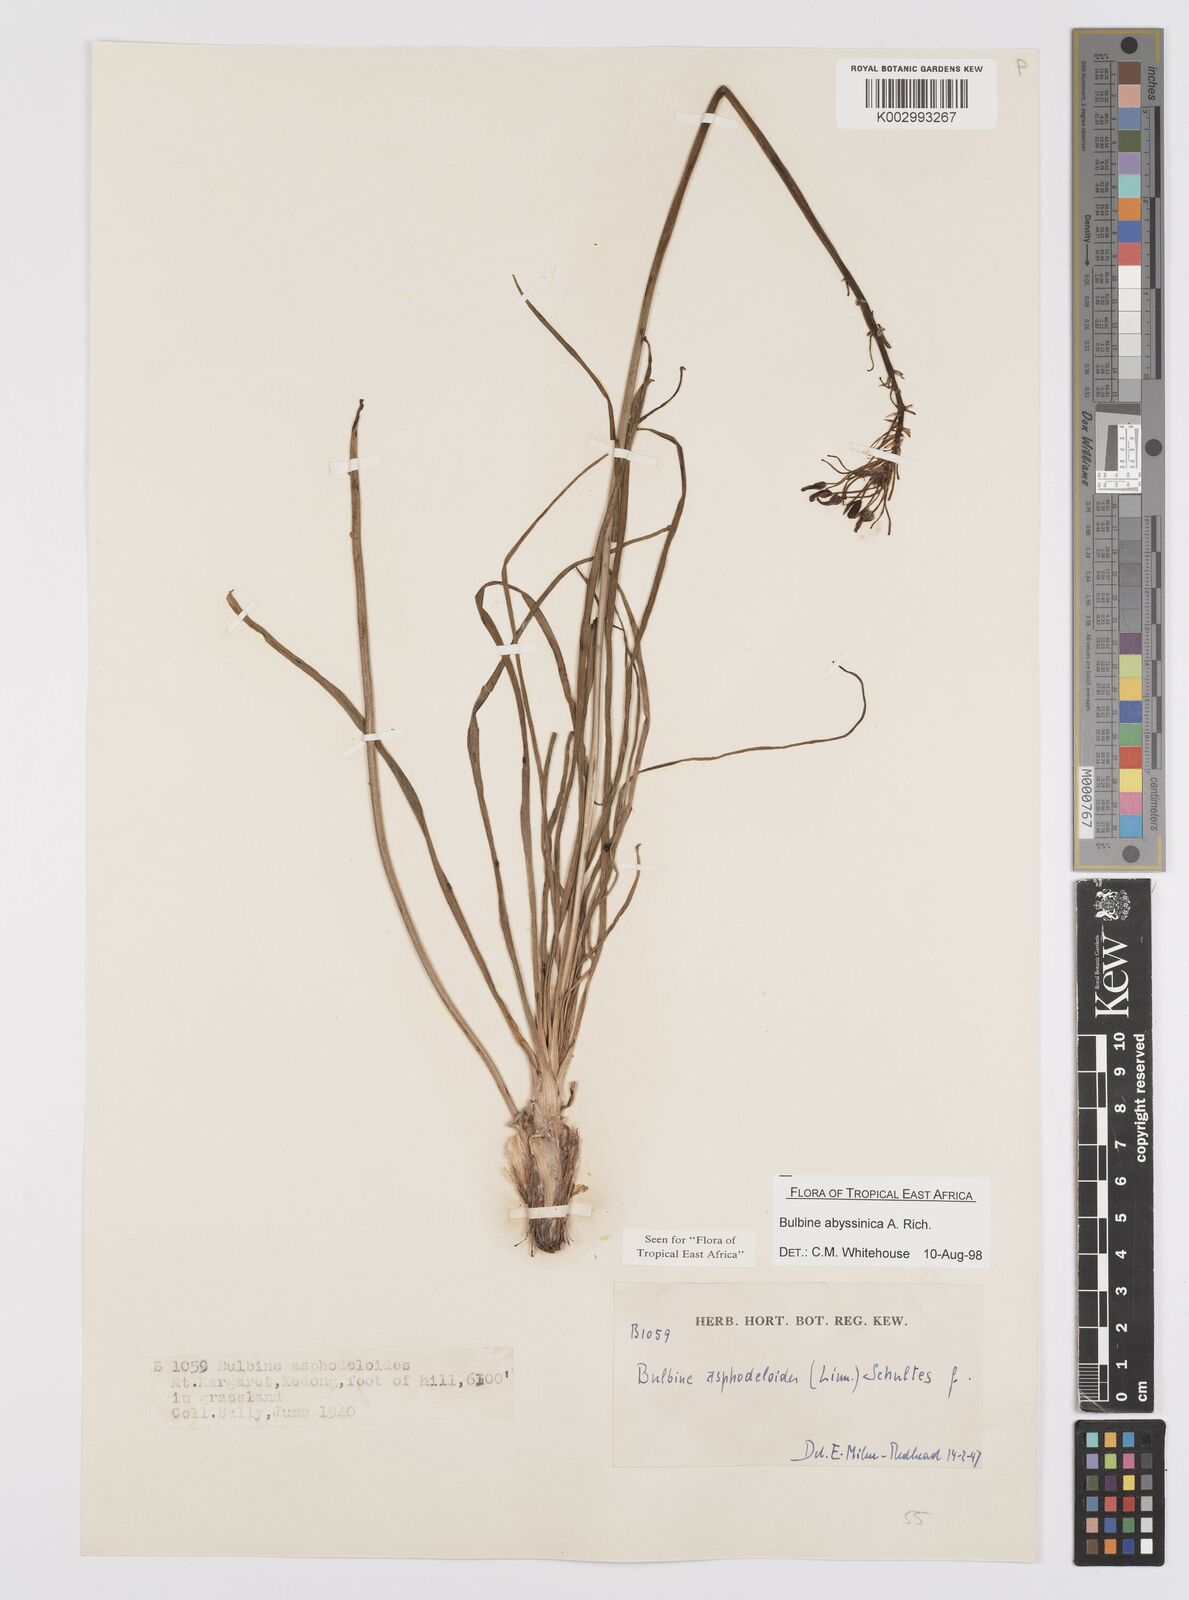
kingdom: Plantae
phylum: Tracheophyta
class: Liliopsida
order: Asparagales
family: Asphodelaceae
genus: Bulbine
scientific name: Bulbine abyssinica
